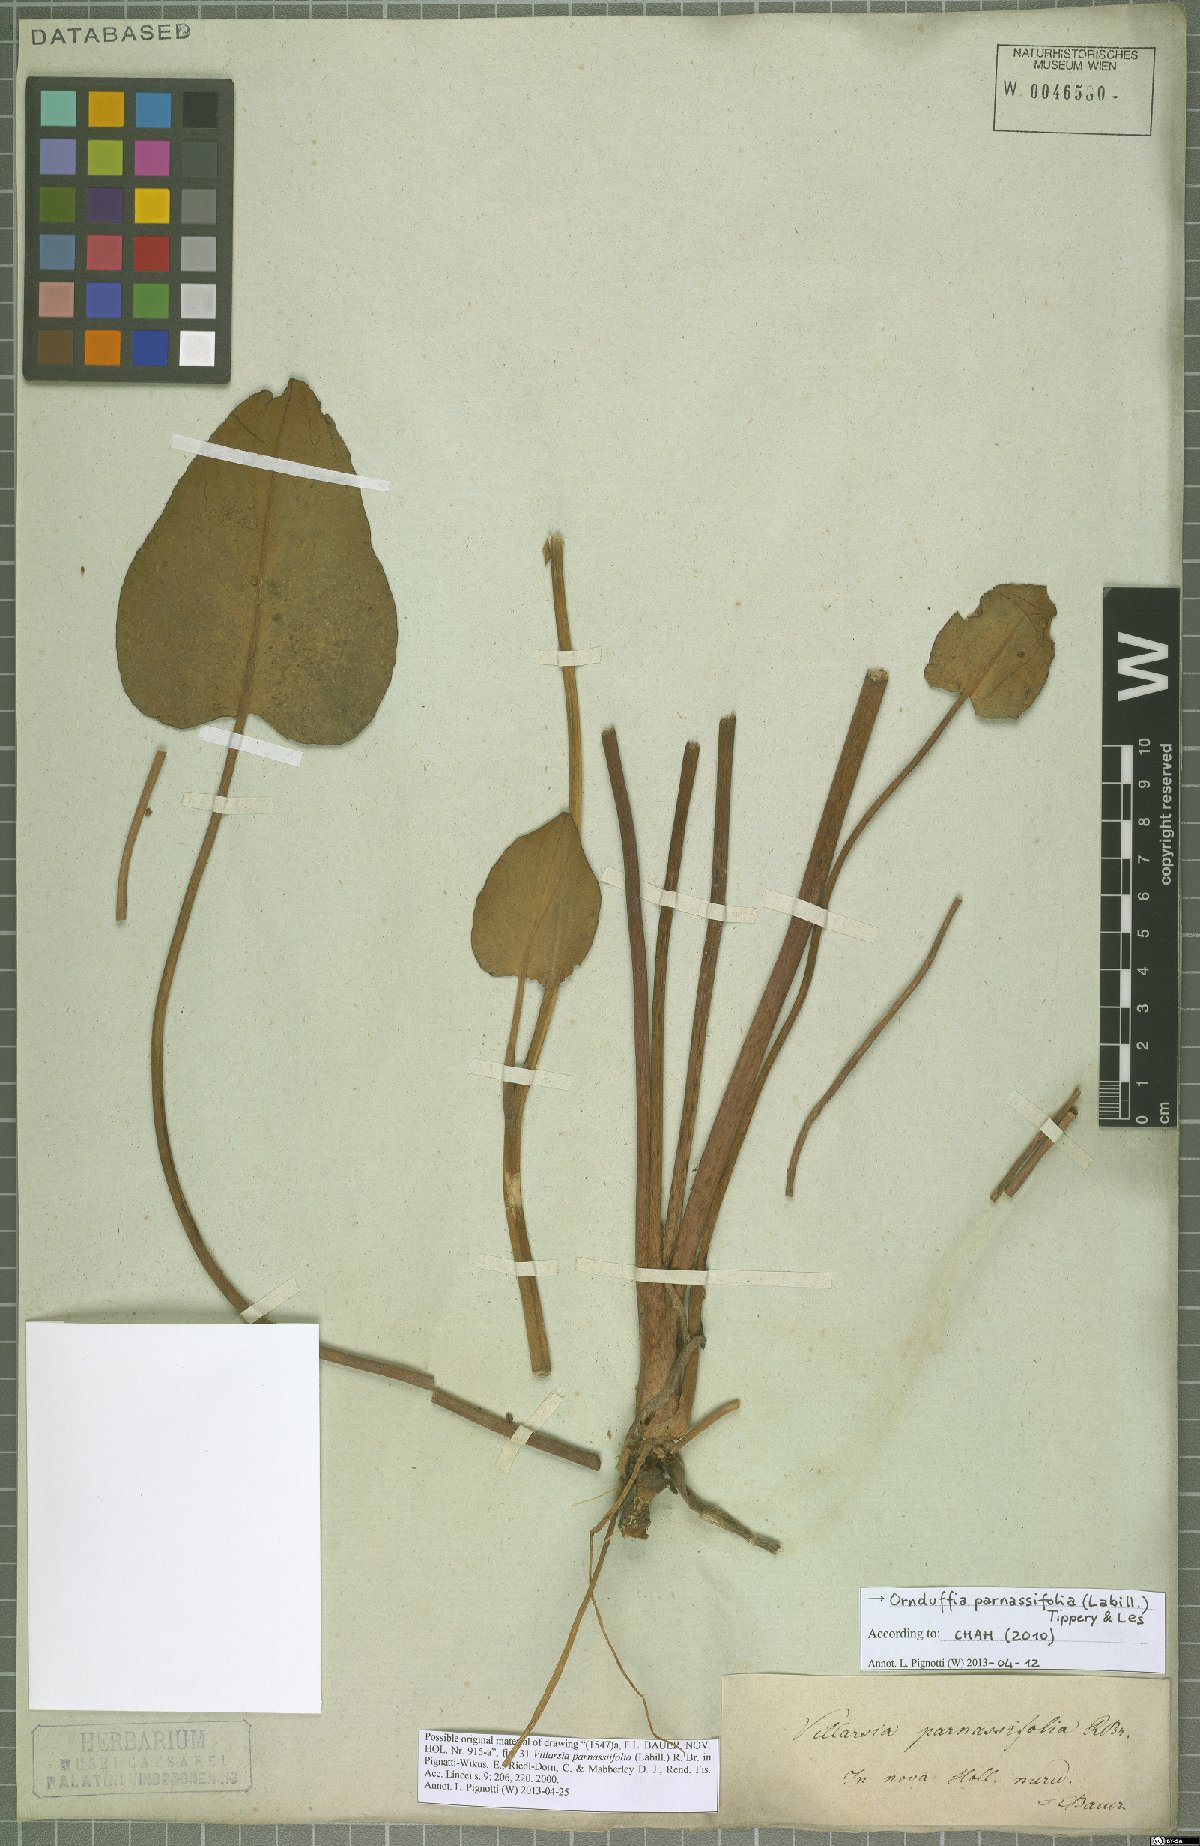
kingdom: Plantae
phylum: Tracheophyta
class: Magnoliopsida
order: Asterales
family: Menyanthaceae
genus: Ornduffia
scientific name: Ornduffia parnassifolia
